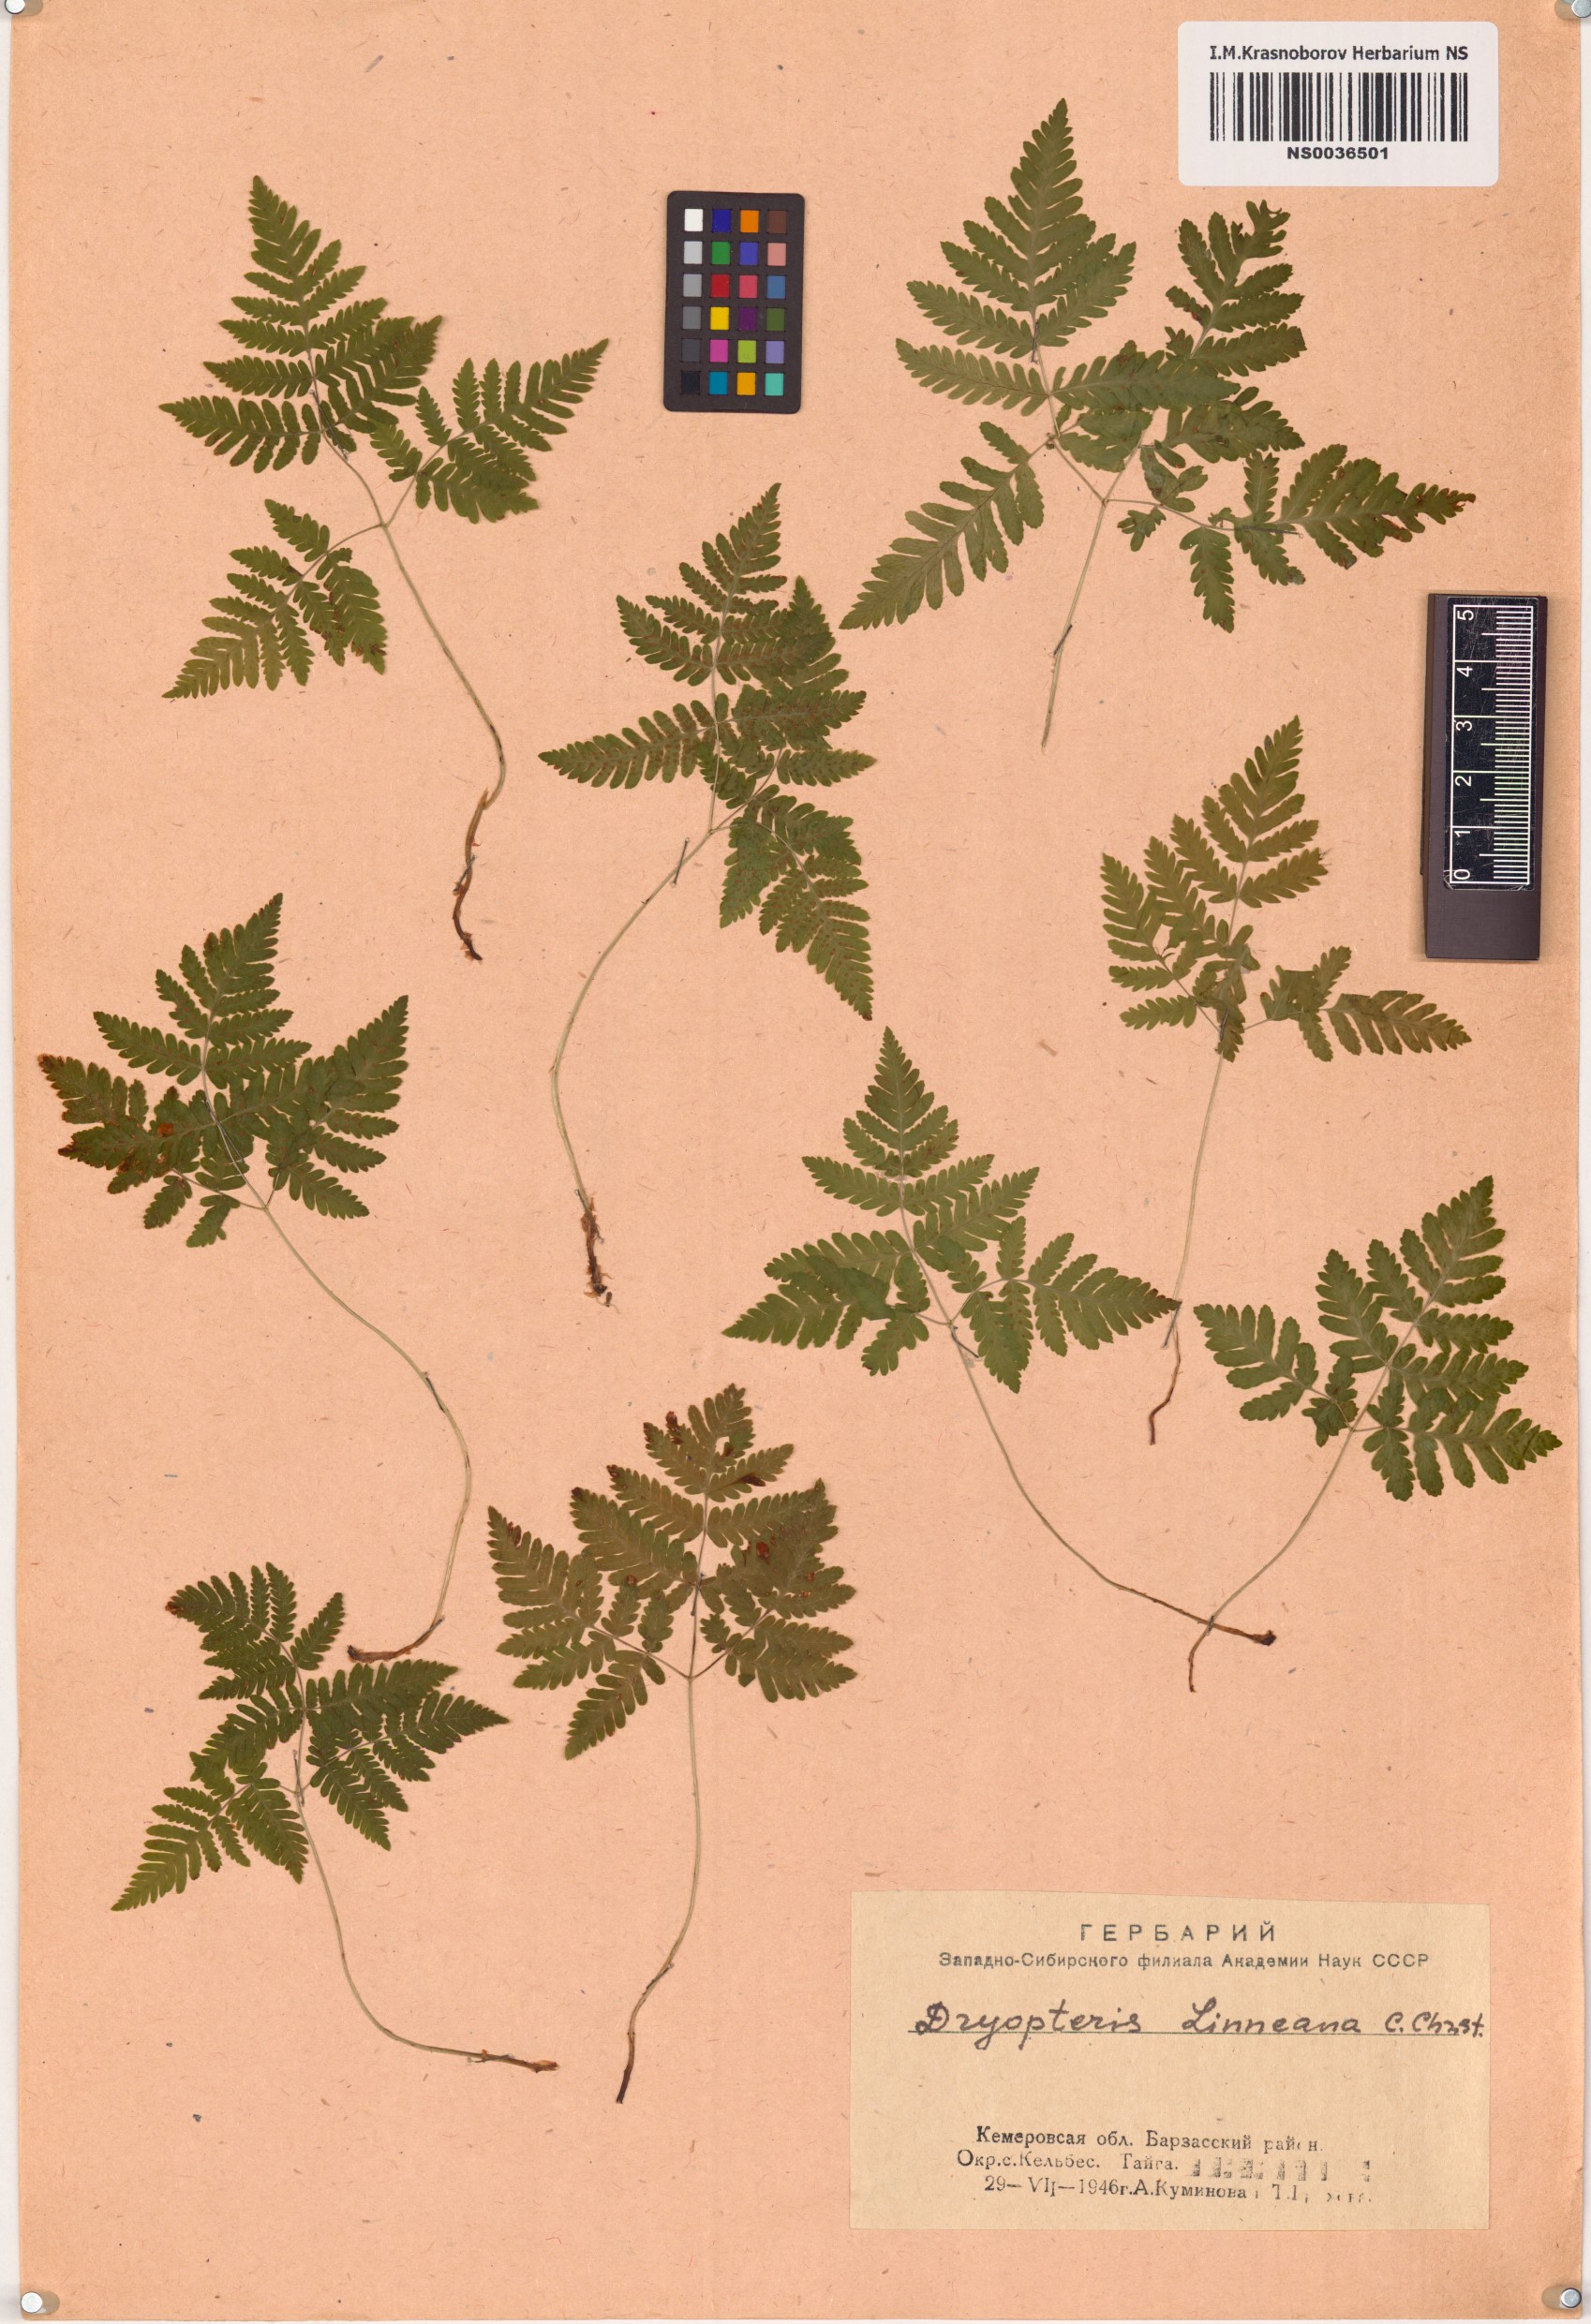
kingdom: Plantae
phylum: Tracheophyta
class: Polypodiopsida
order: Polypodiales
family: Cystopteridaceae
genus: Gymnocarpium
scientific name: Gymnocarpium dryopteris
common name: Oak fern
